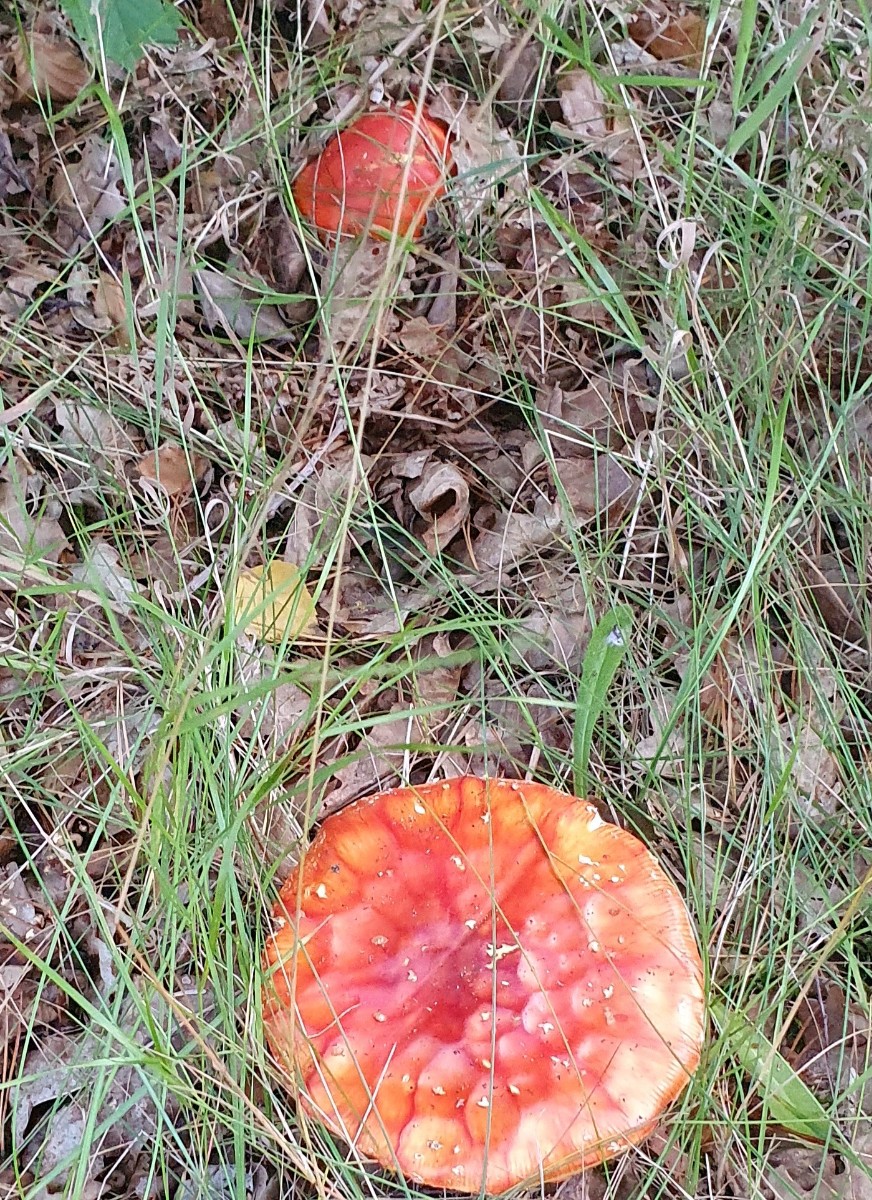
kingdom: Fungi
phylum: Basidiomycota
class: Agaricomycetes
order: Agaricales
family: Amanitaceae
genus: Amanita
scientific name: Amanita muscaria
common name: rød fluesvamp
